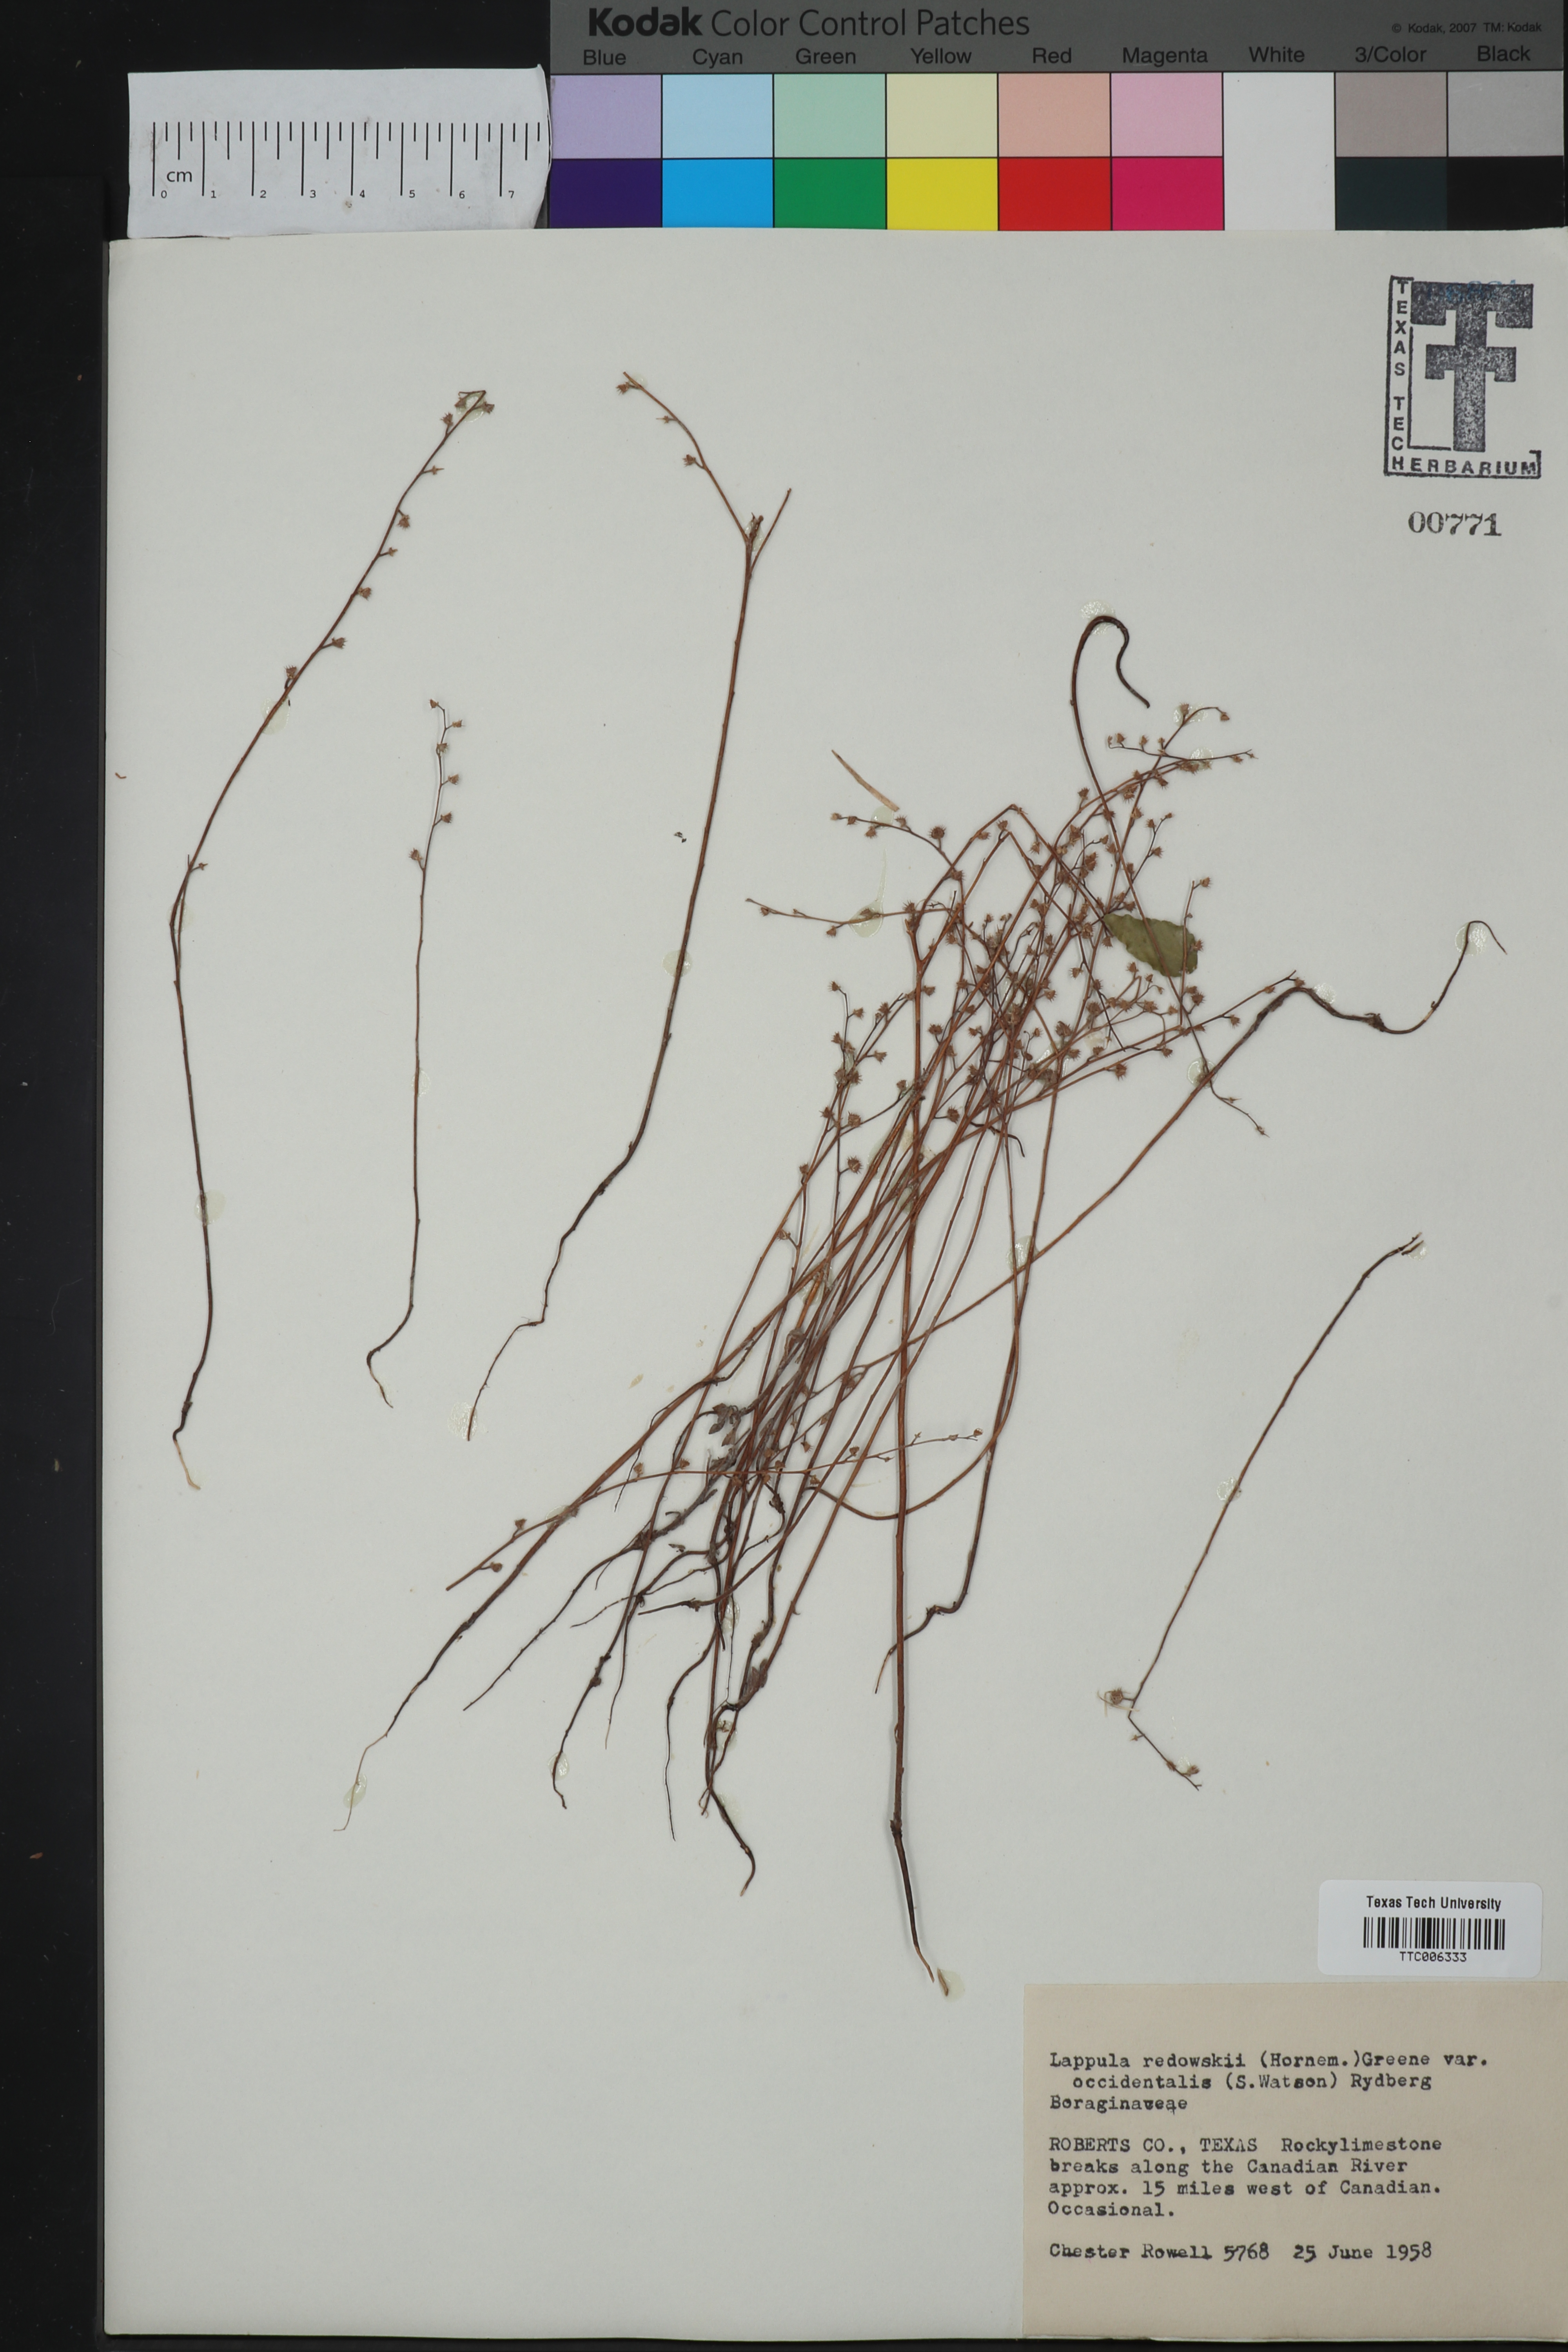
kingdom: Plantae
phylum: Tracheophyta
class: Magnoliopsida
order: Boraginales
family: Boraginaceae
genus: Lappula
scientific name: Lappula occidentalis
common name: Western stickseed
